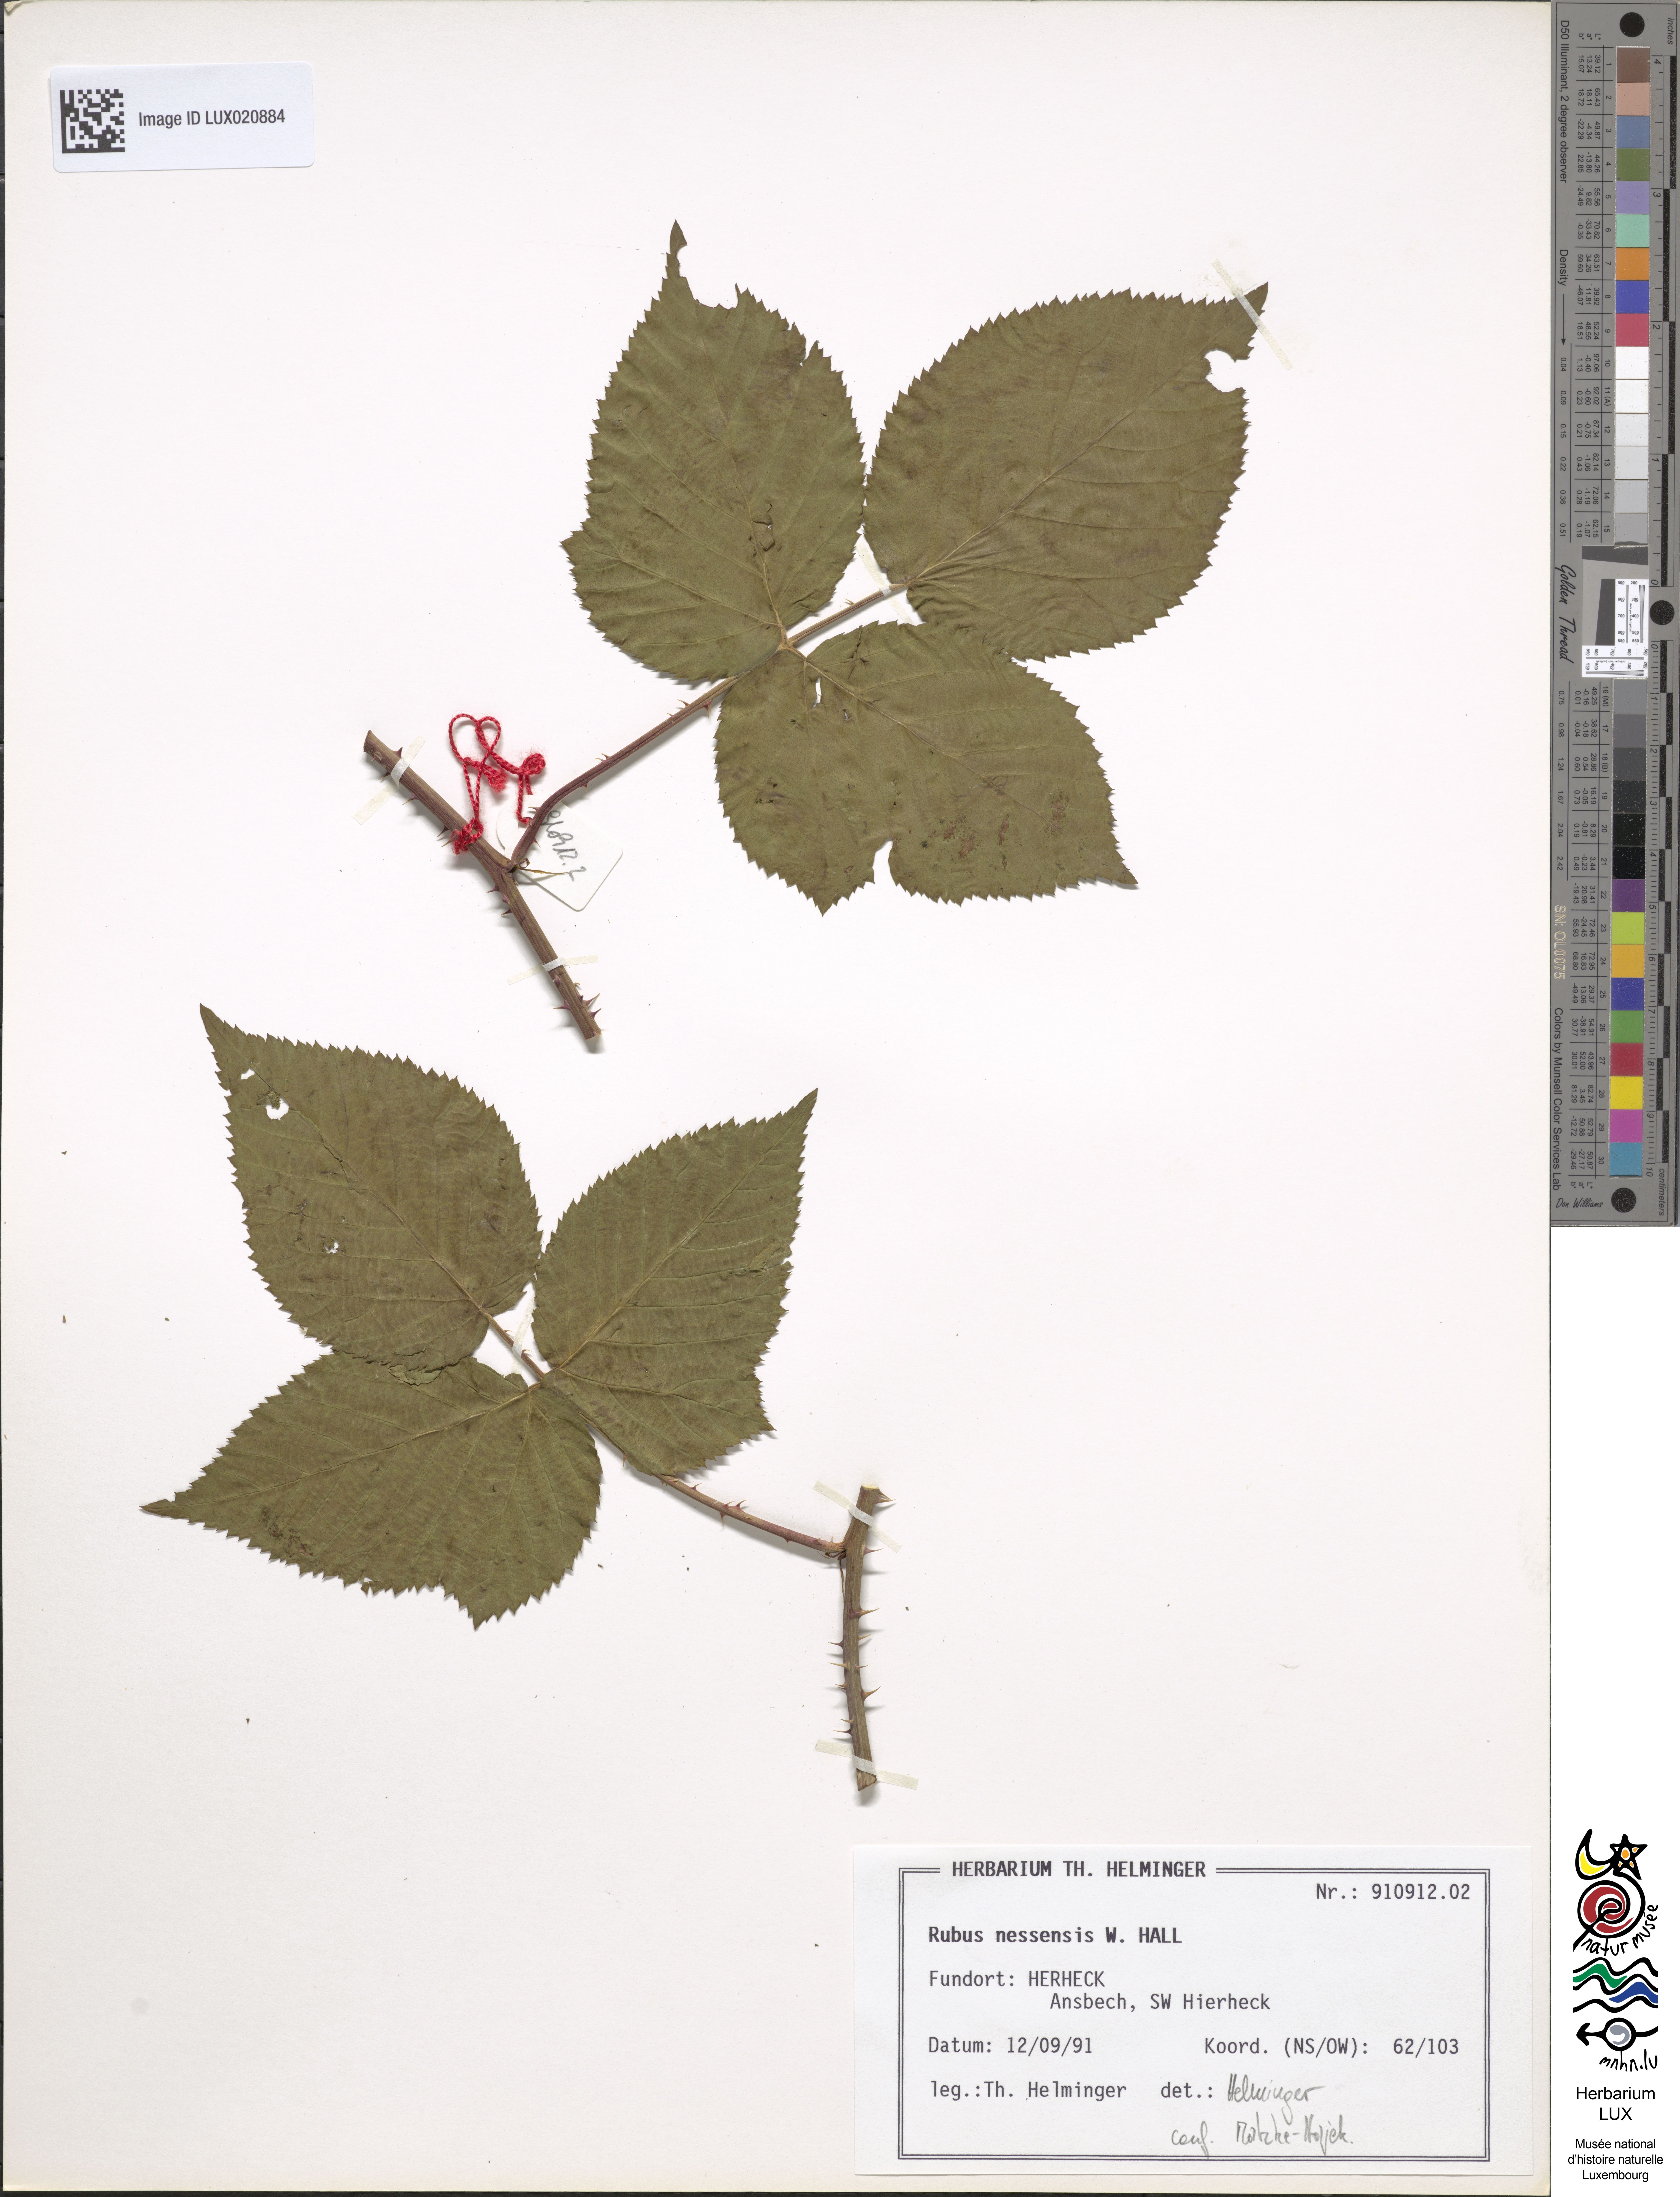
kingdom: Plantae
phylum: Tracheophyta
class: Magnoliopsida
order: Rosales
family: Rosaceae
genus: Rubus
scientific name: Rubus polonicus
